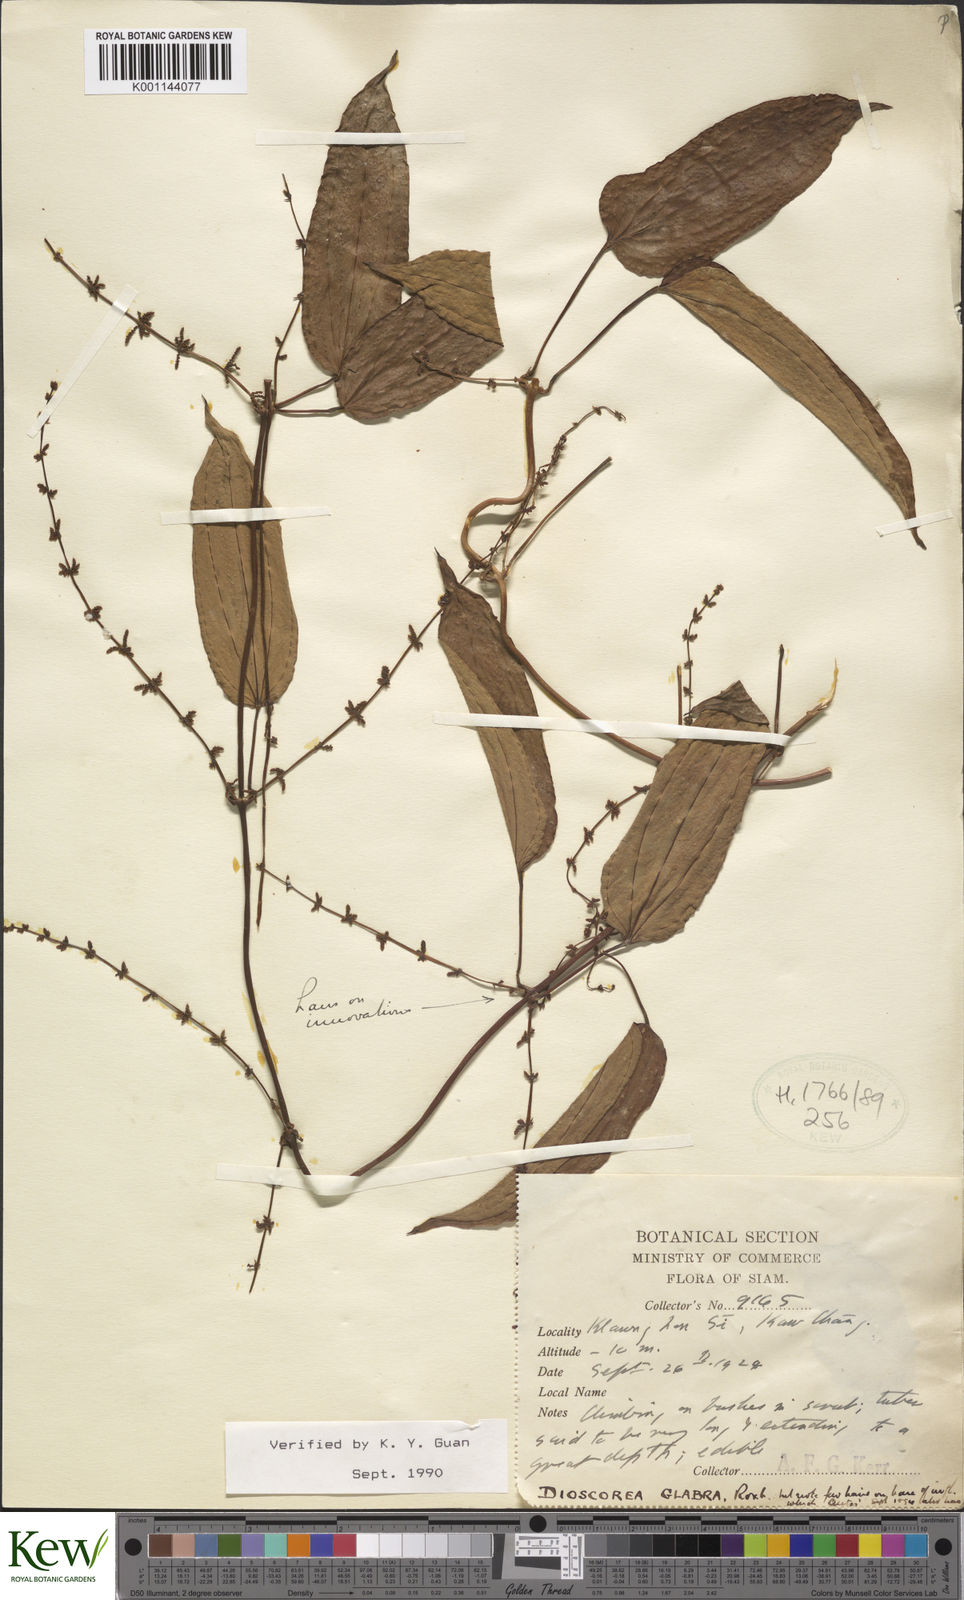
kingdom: Plantae
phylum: Tracheophyta
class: Liliopsida
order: Dioscoreales
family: Dioscoreaceae
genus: Dioscorea
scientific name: Dioscorea glabra
